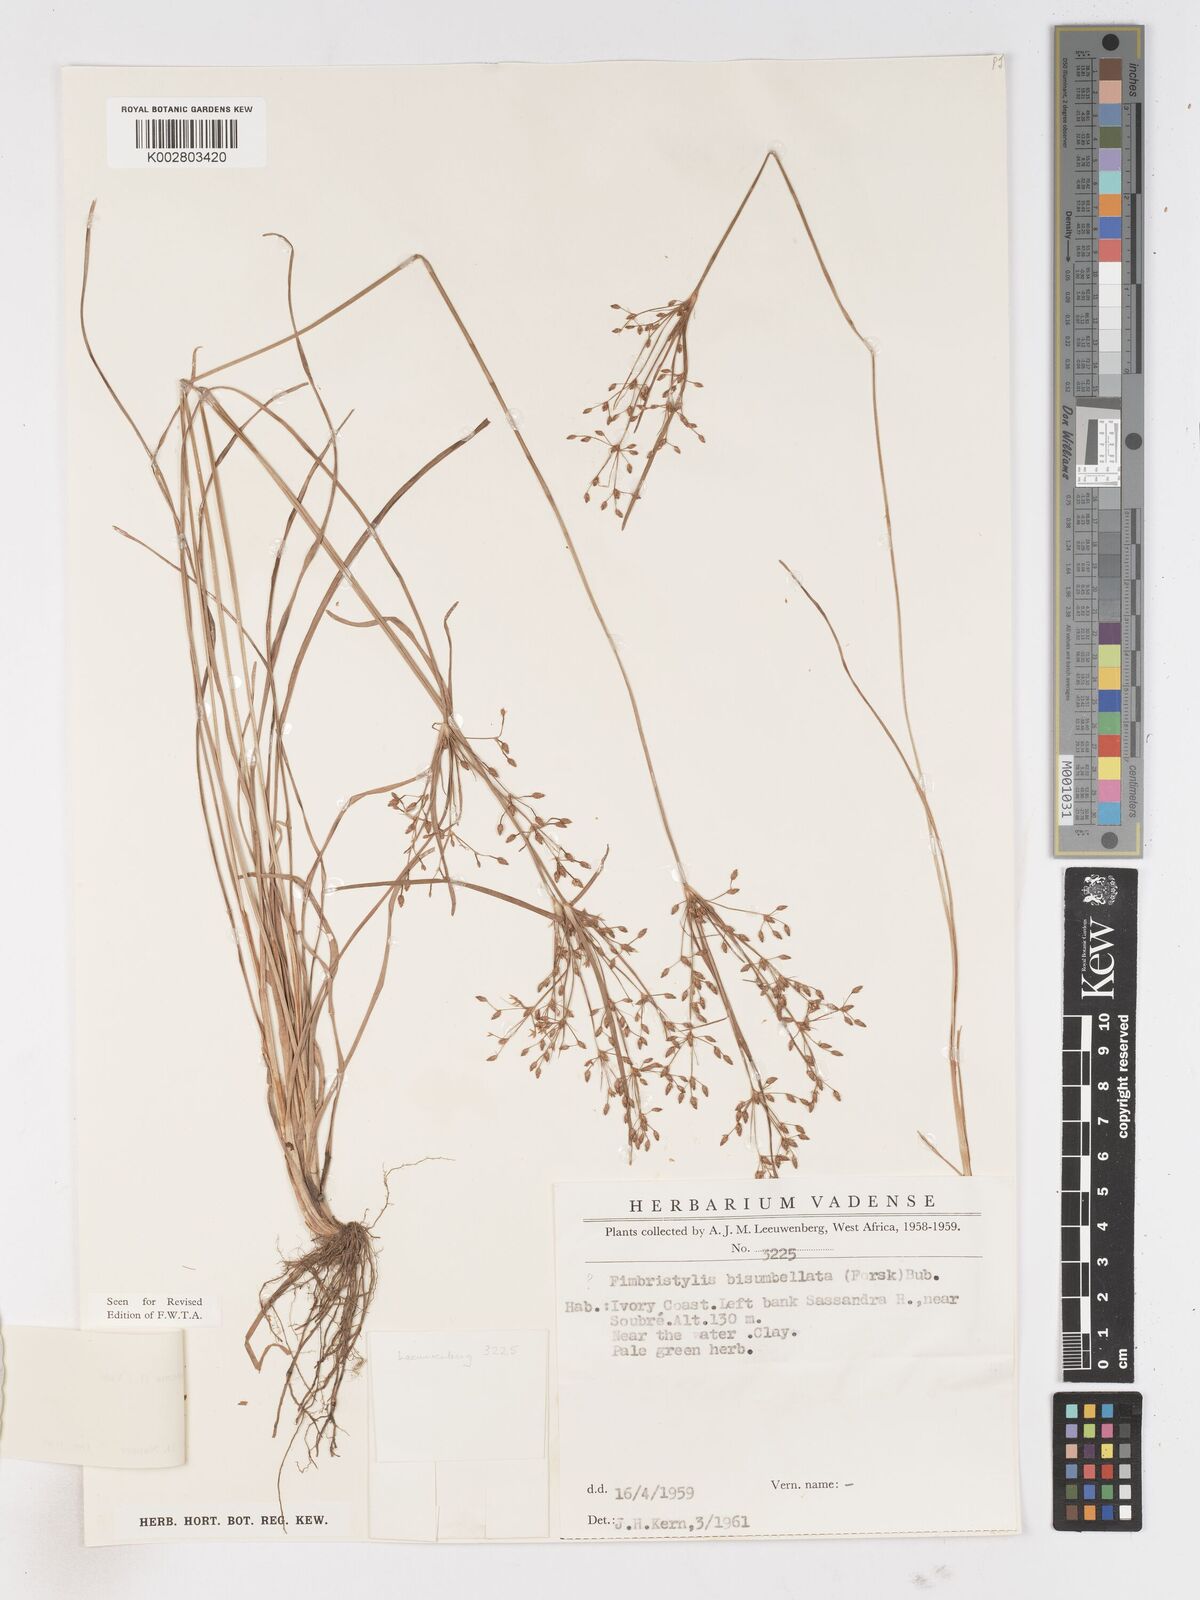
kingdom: Plantae
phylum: Tracheophyta
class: Liliopsida
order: Poales
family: Cyperaceae
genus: Fimbristylis
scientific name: Fimbristylis dichotoma
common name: Forked fimbry
